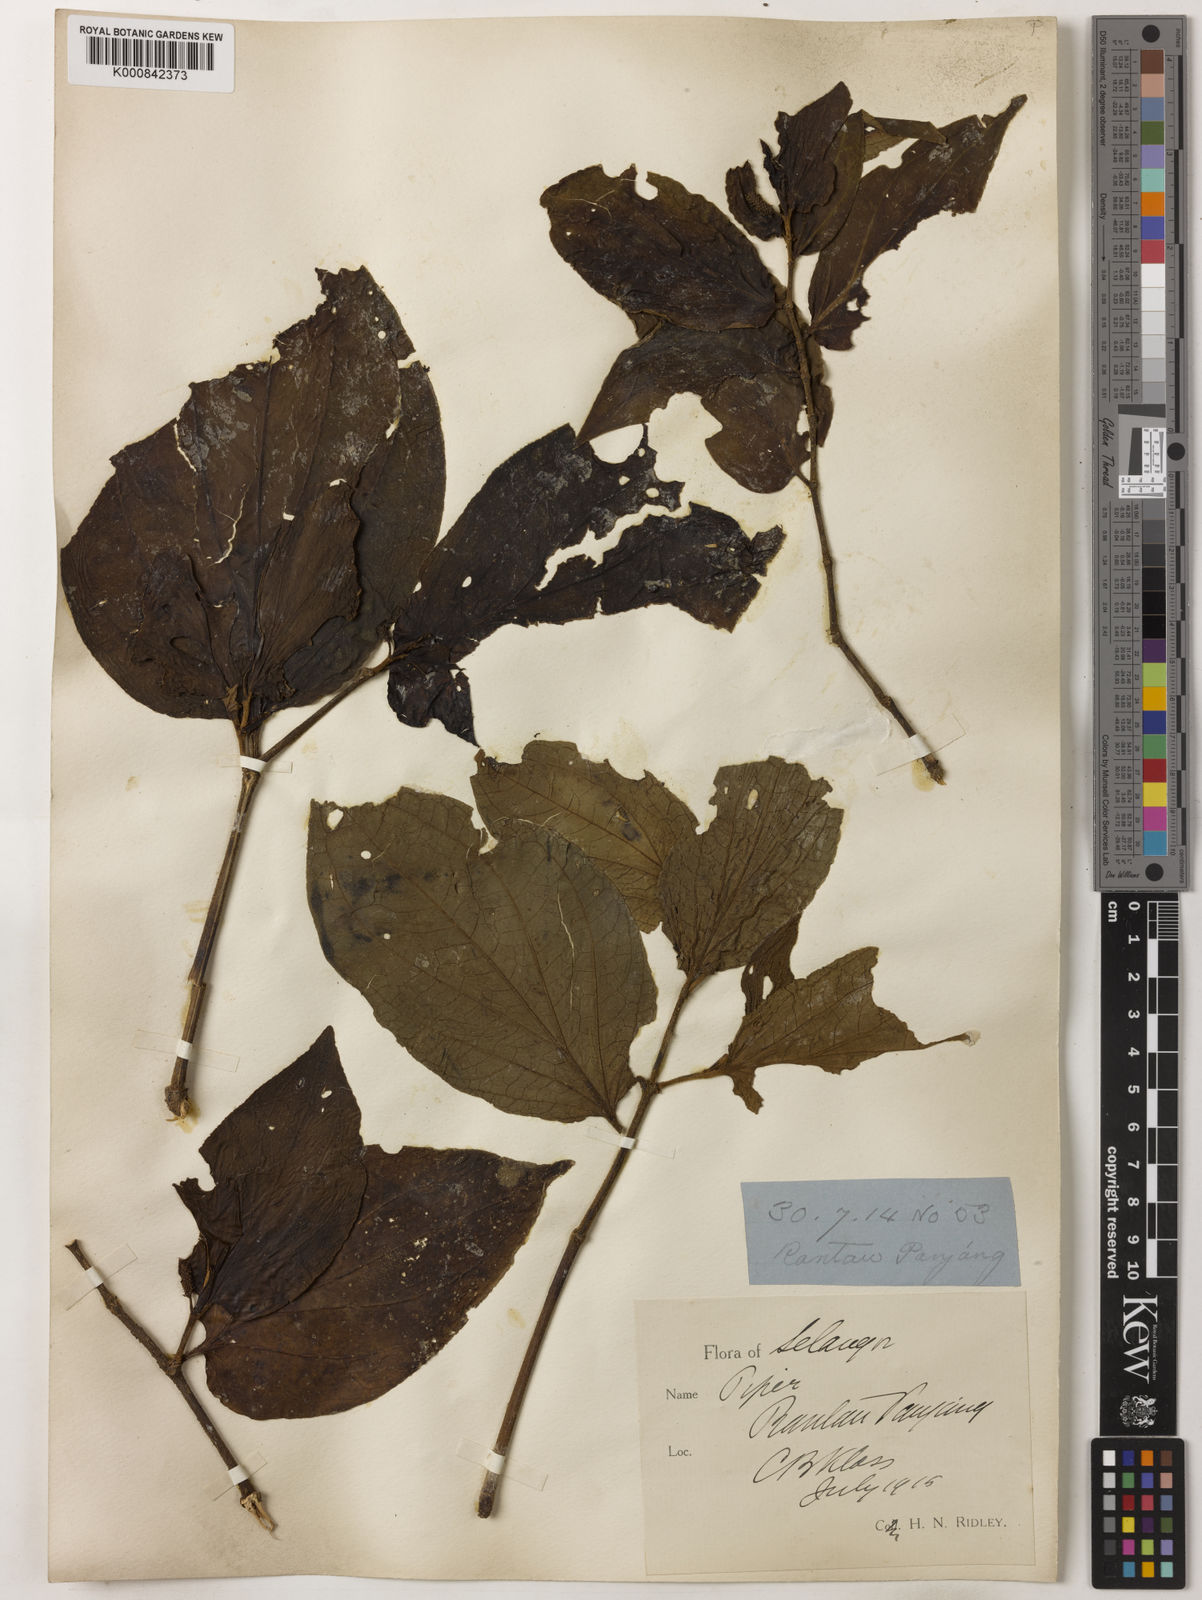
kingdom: Plantae
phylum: Tracheophyta
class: Magnoliopsida
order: Piperales
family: Piperaceae
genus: Piper
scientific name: Piper rostratum
